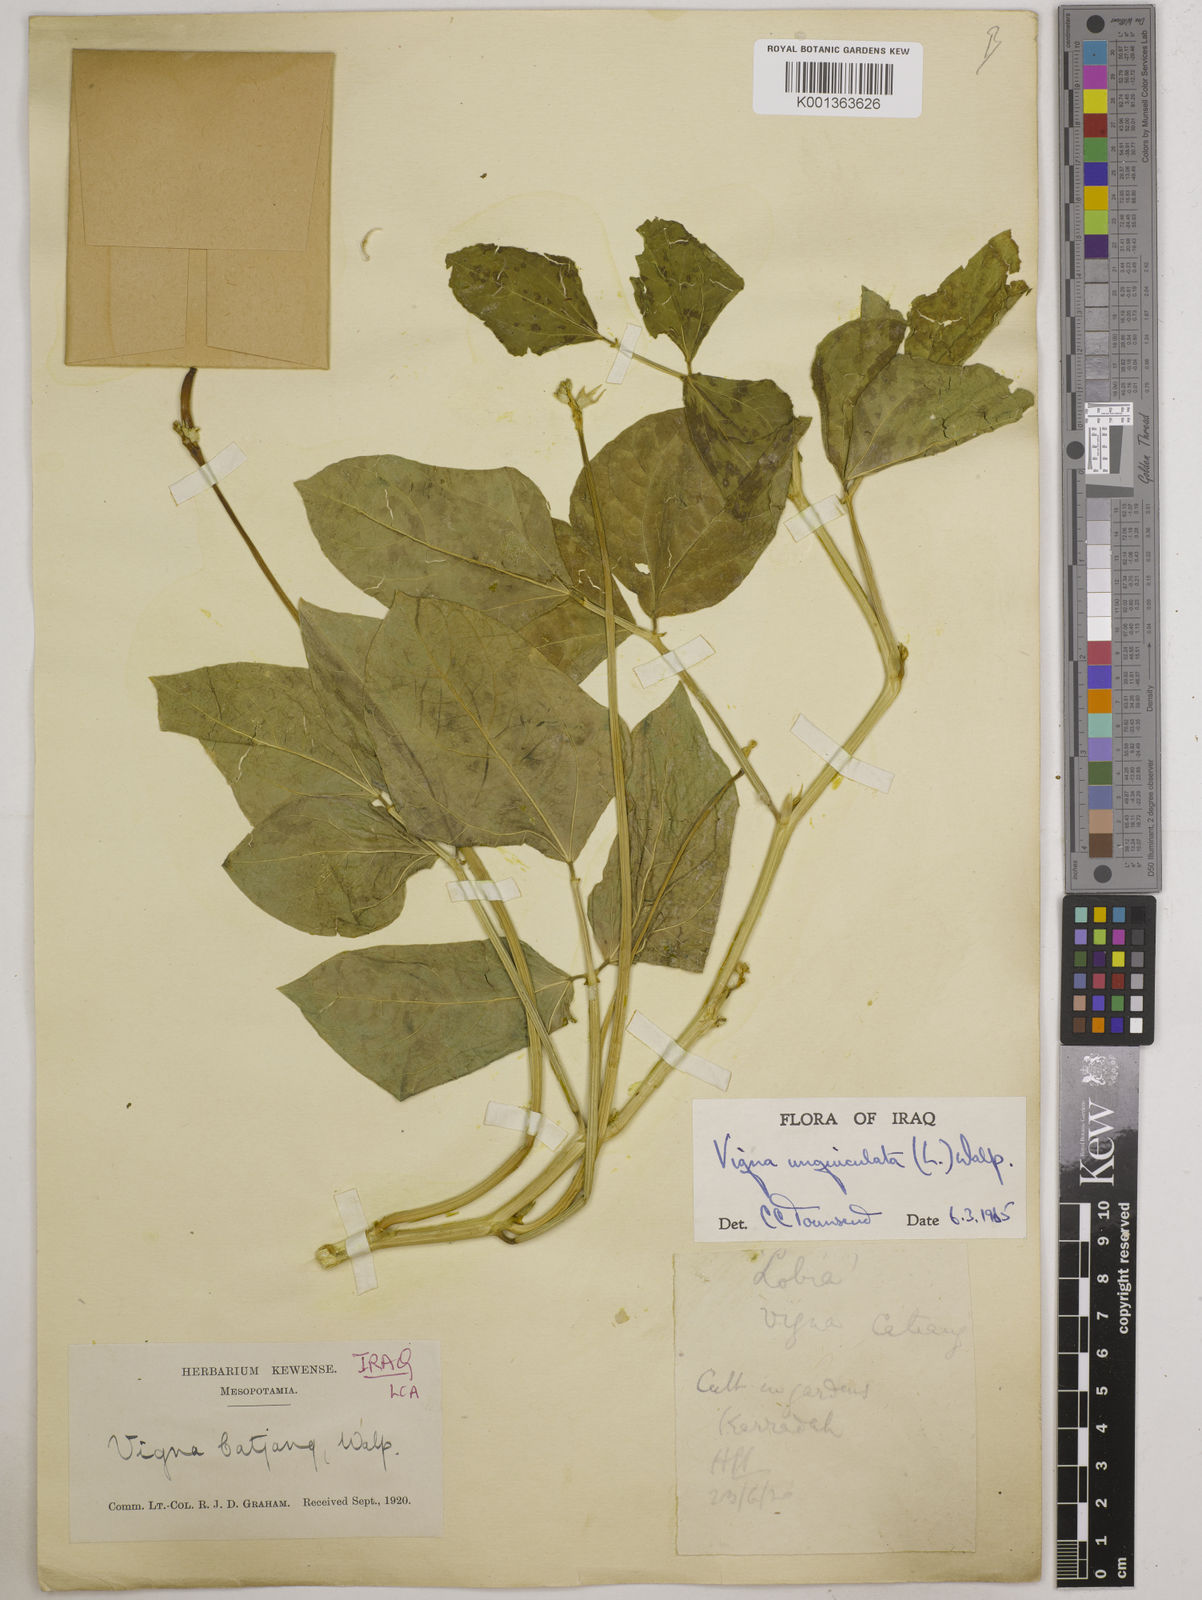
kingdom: Plantae
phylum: Tracheophyta
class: Magnoliopsida
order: Fabales
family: Fabaceae
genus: Vigna
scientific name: Vigna unguiculata
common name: Cowpea
